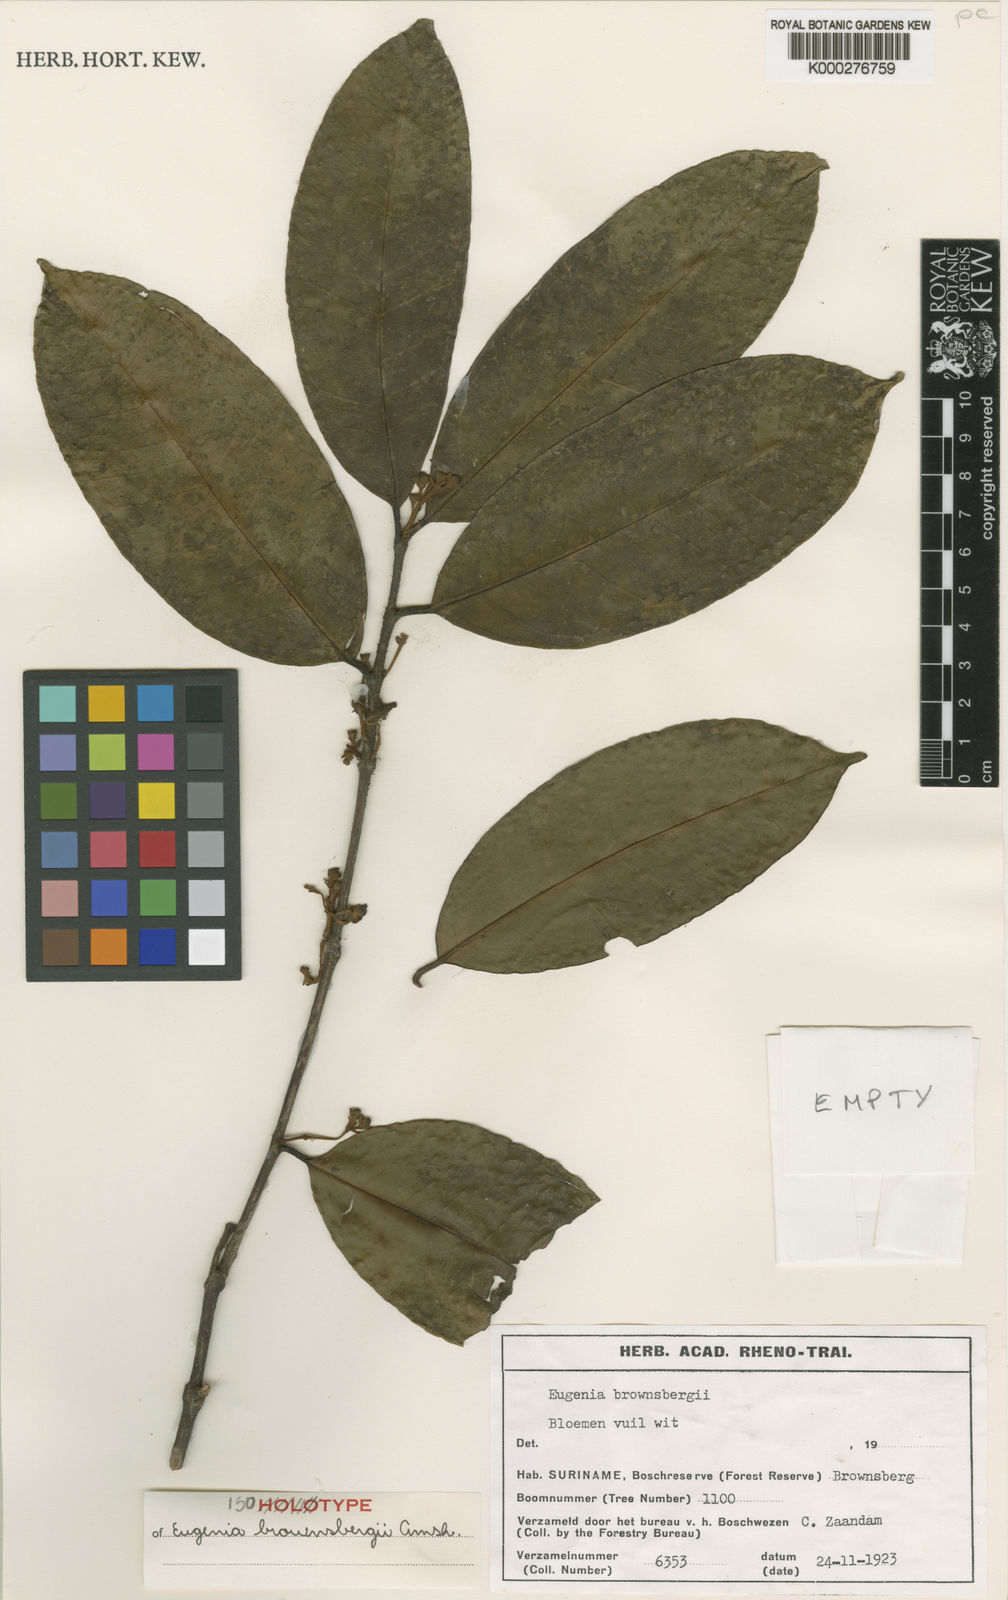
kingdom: Plantae
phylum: Tracheophyta
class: Magnoliopsida
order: Myrtales
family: Myrtaceae
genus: Eugenia
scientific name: Eugenia brownsbergii
